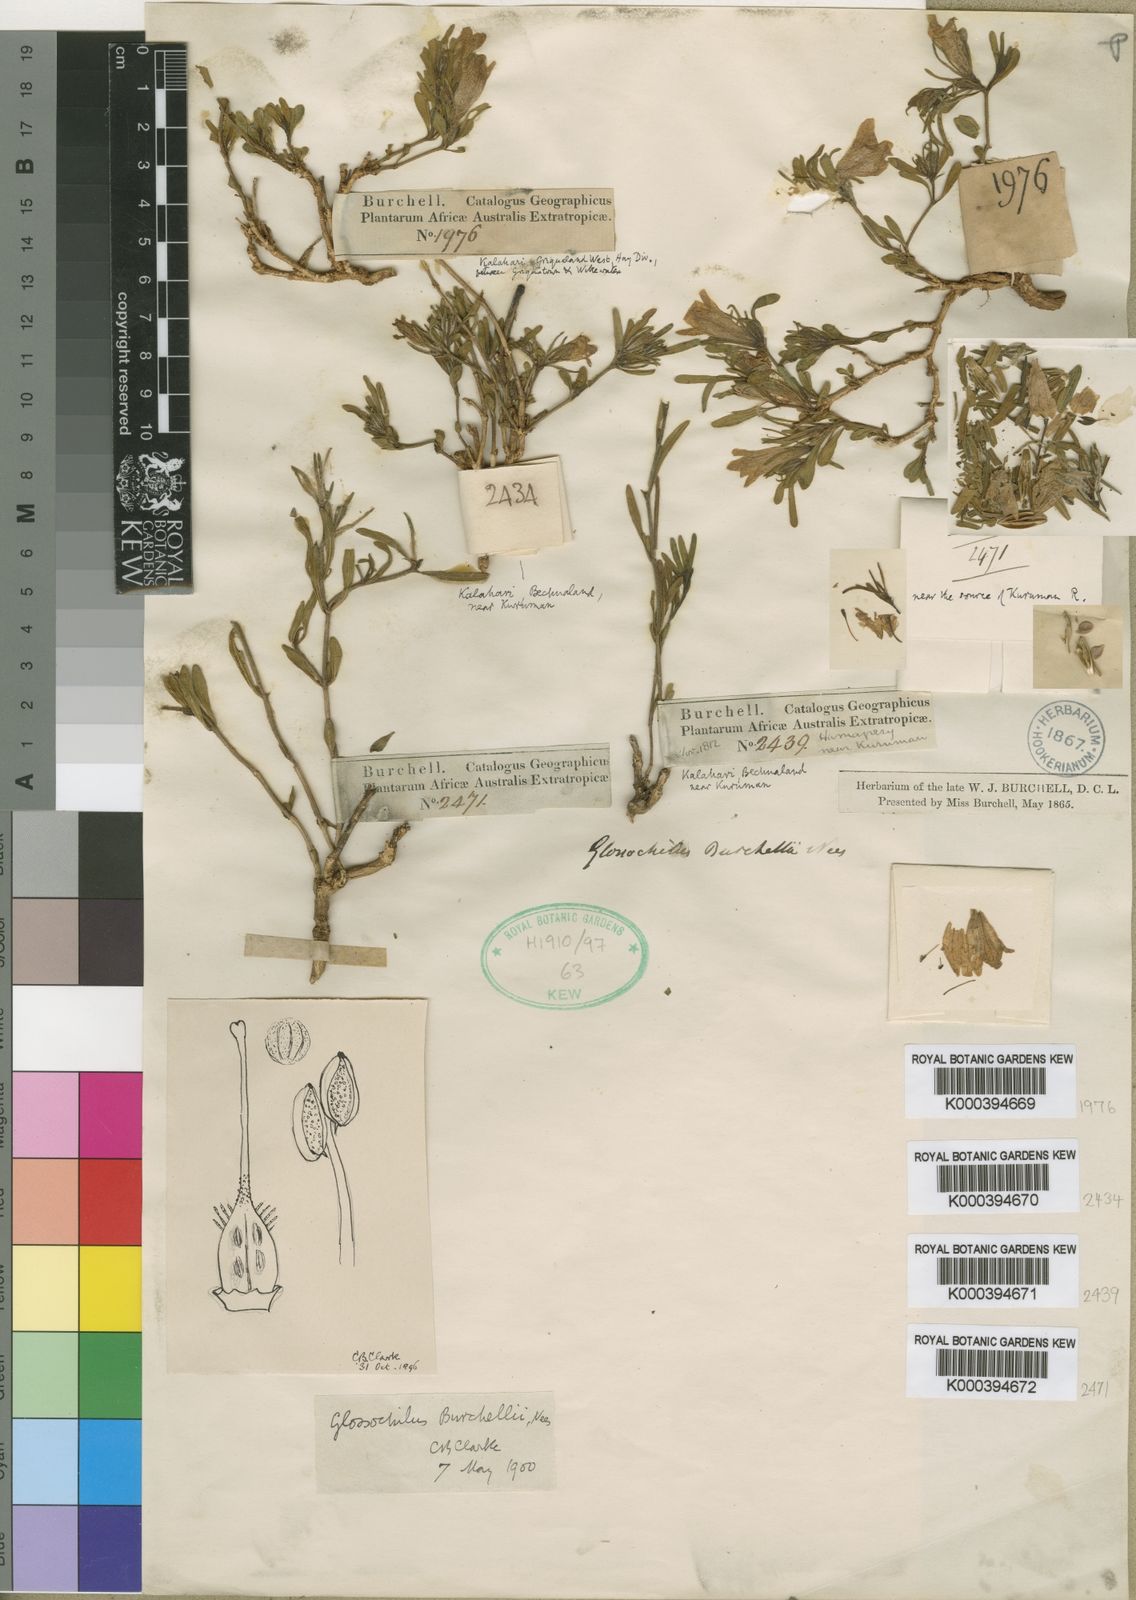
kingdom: Plantae
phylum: Tracheophyta
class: Magnoliopsida
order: Lamiales
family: Acanthaceae
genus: Glossochilus
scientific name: Glossochilus burchellii
